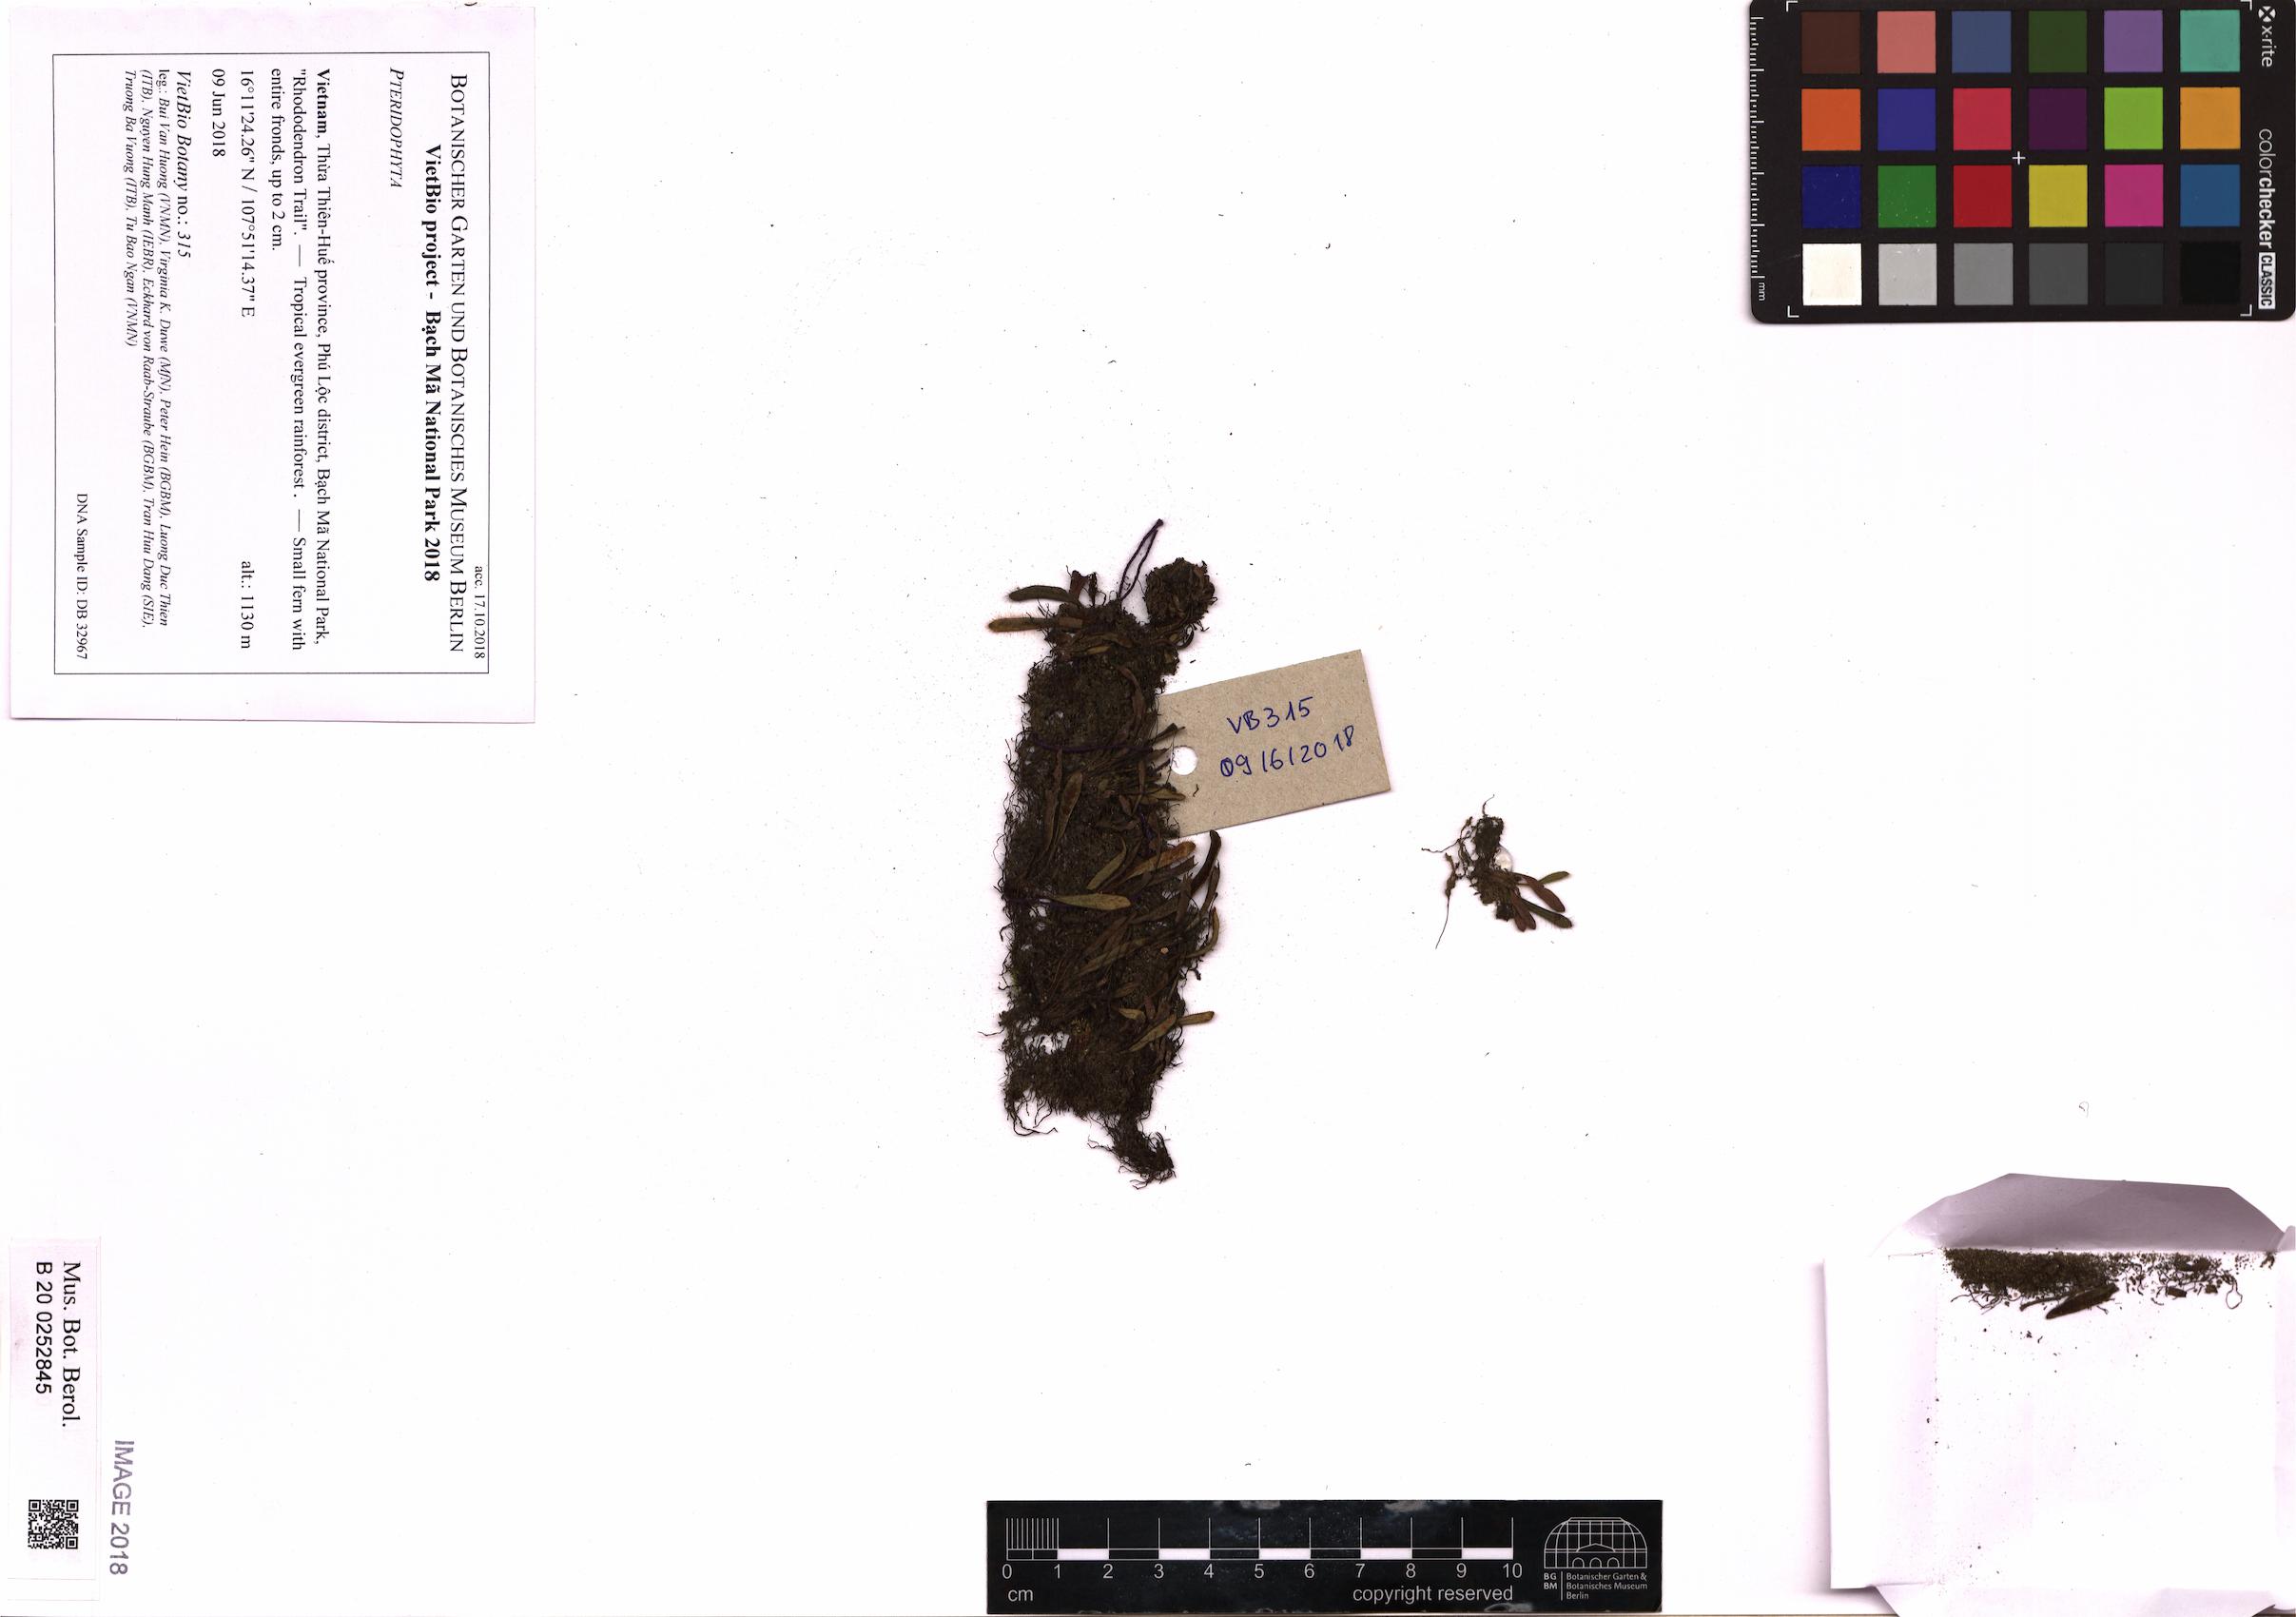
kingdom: Plantae
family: Pteridophyta
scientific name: Pteridophyta
